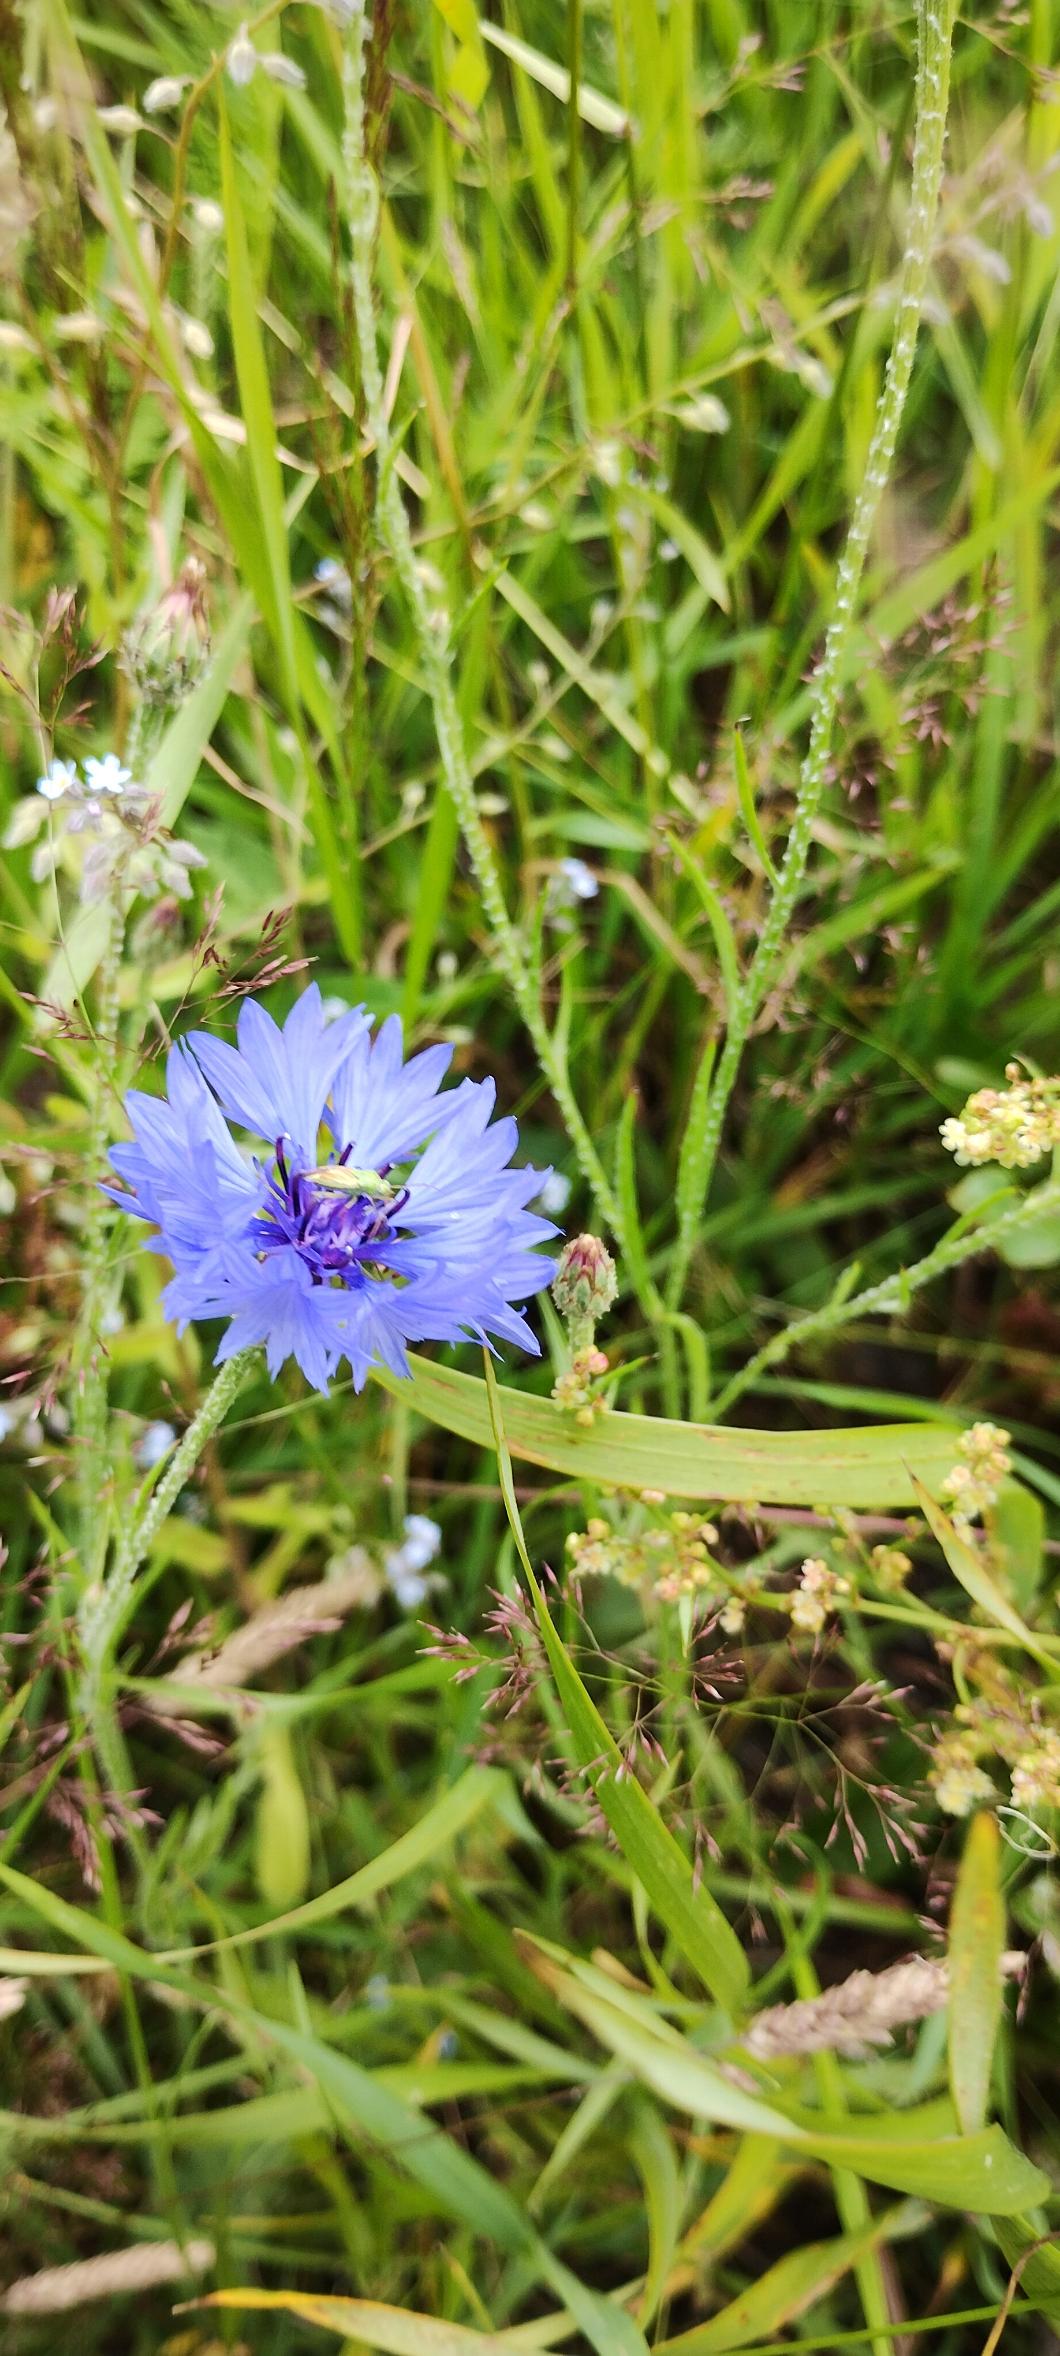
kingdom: Plantae
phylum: Tracheophyta
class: Magnoliopsida
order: Asterales
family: Asteraceae
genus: Centaurea
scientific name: Centaurea cyanus
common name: Kornblomst
